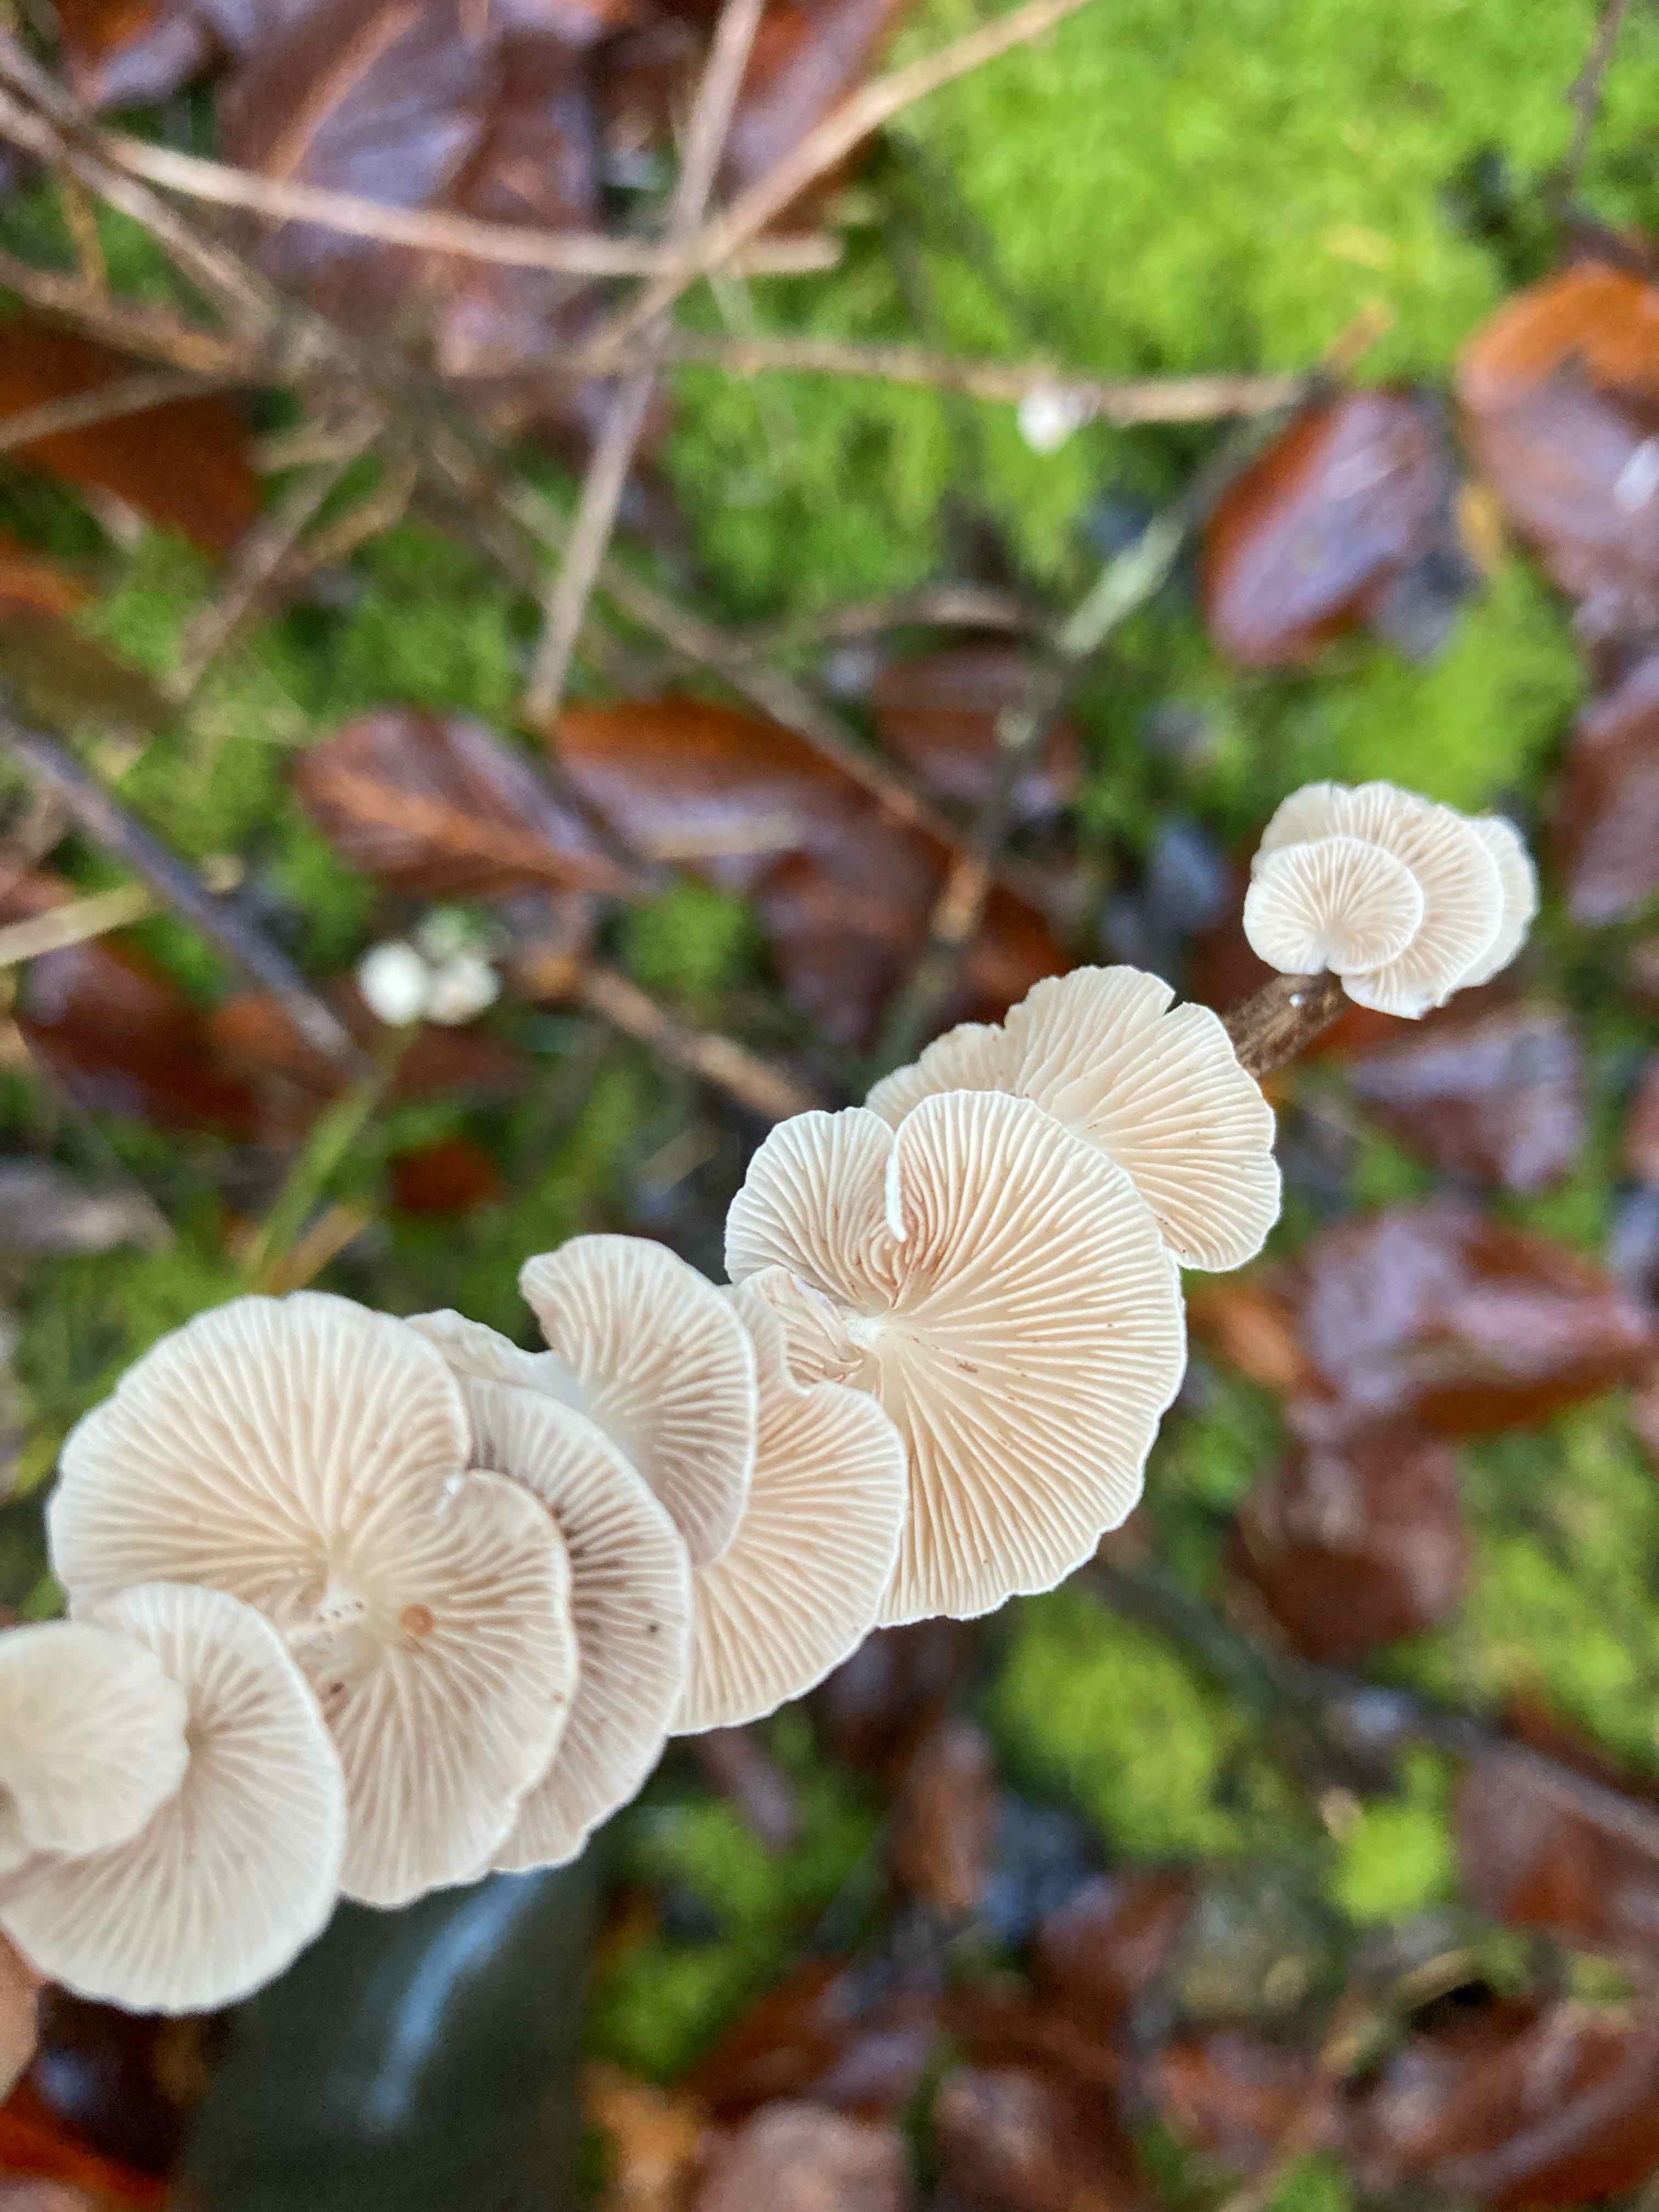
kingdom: Fungi
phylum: Basidiomycota
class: Agaricomycetes
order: Agaricales
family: Crepidotaceae
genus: Crepidotus
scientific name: Crepidotus luteolus
